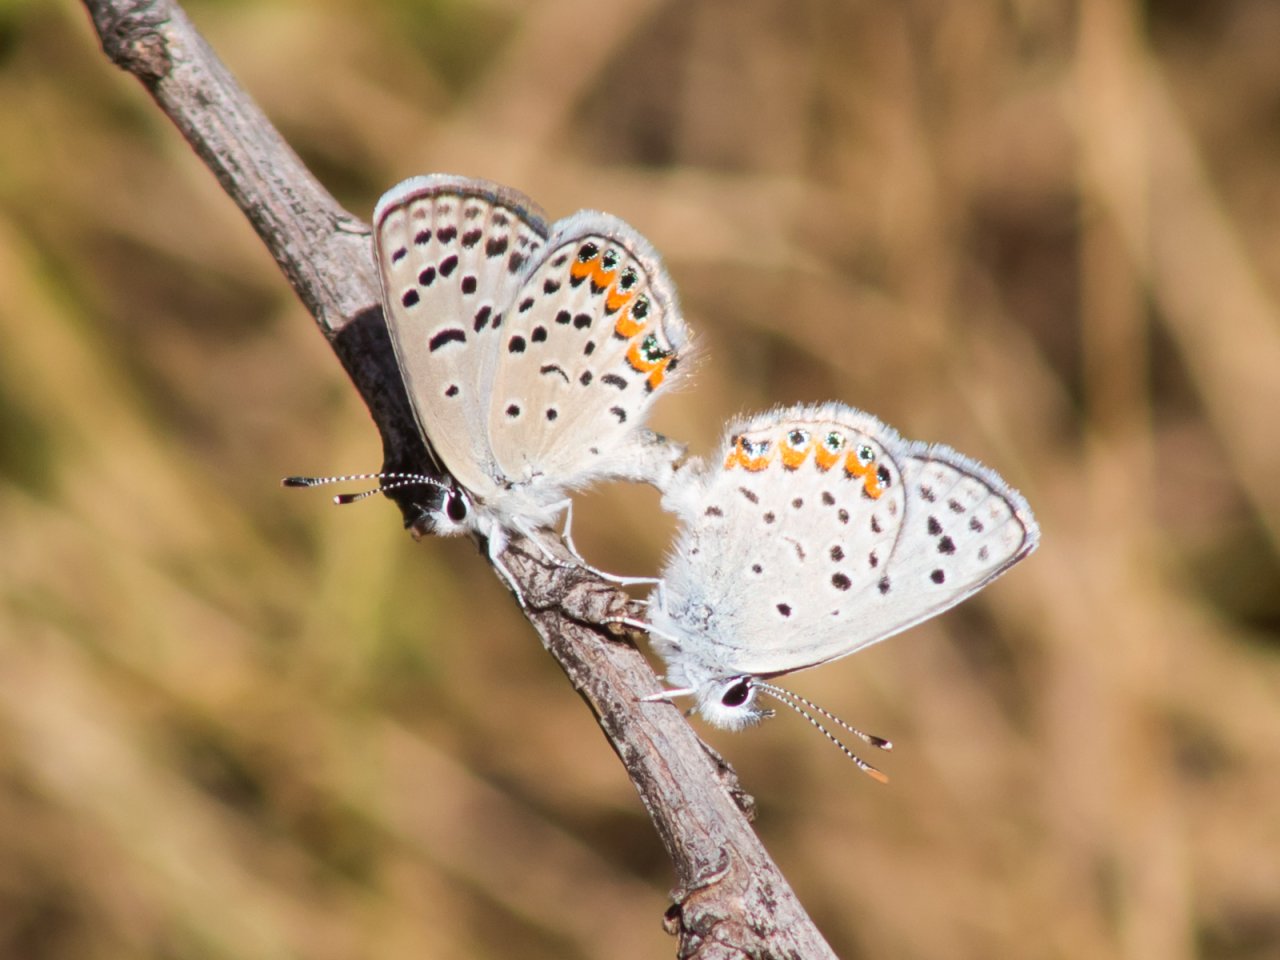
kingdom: Animalia
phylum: Arthropoda
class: Insecta
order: Lepidoptera
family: Lycaenidae
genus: Plebejus
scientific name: Plebejus
